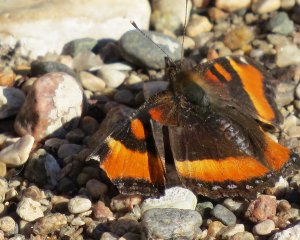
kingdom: Animalia
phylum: Arthropoda
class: Insecta
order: Lepidoptera
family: Nymphalidae
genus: Aglais
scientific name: Aglais milberti
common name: Milbert's Tortoiseshell
